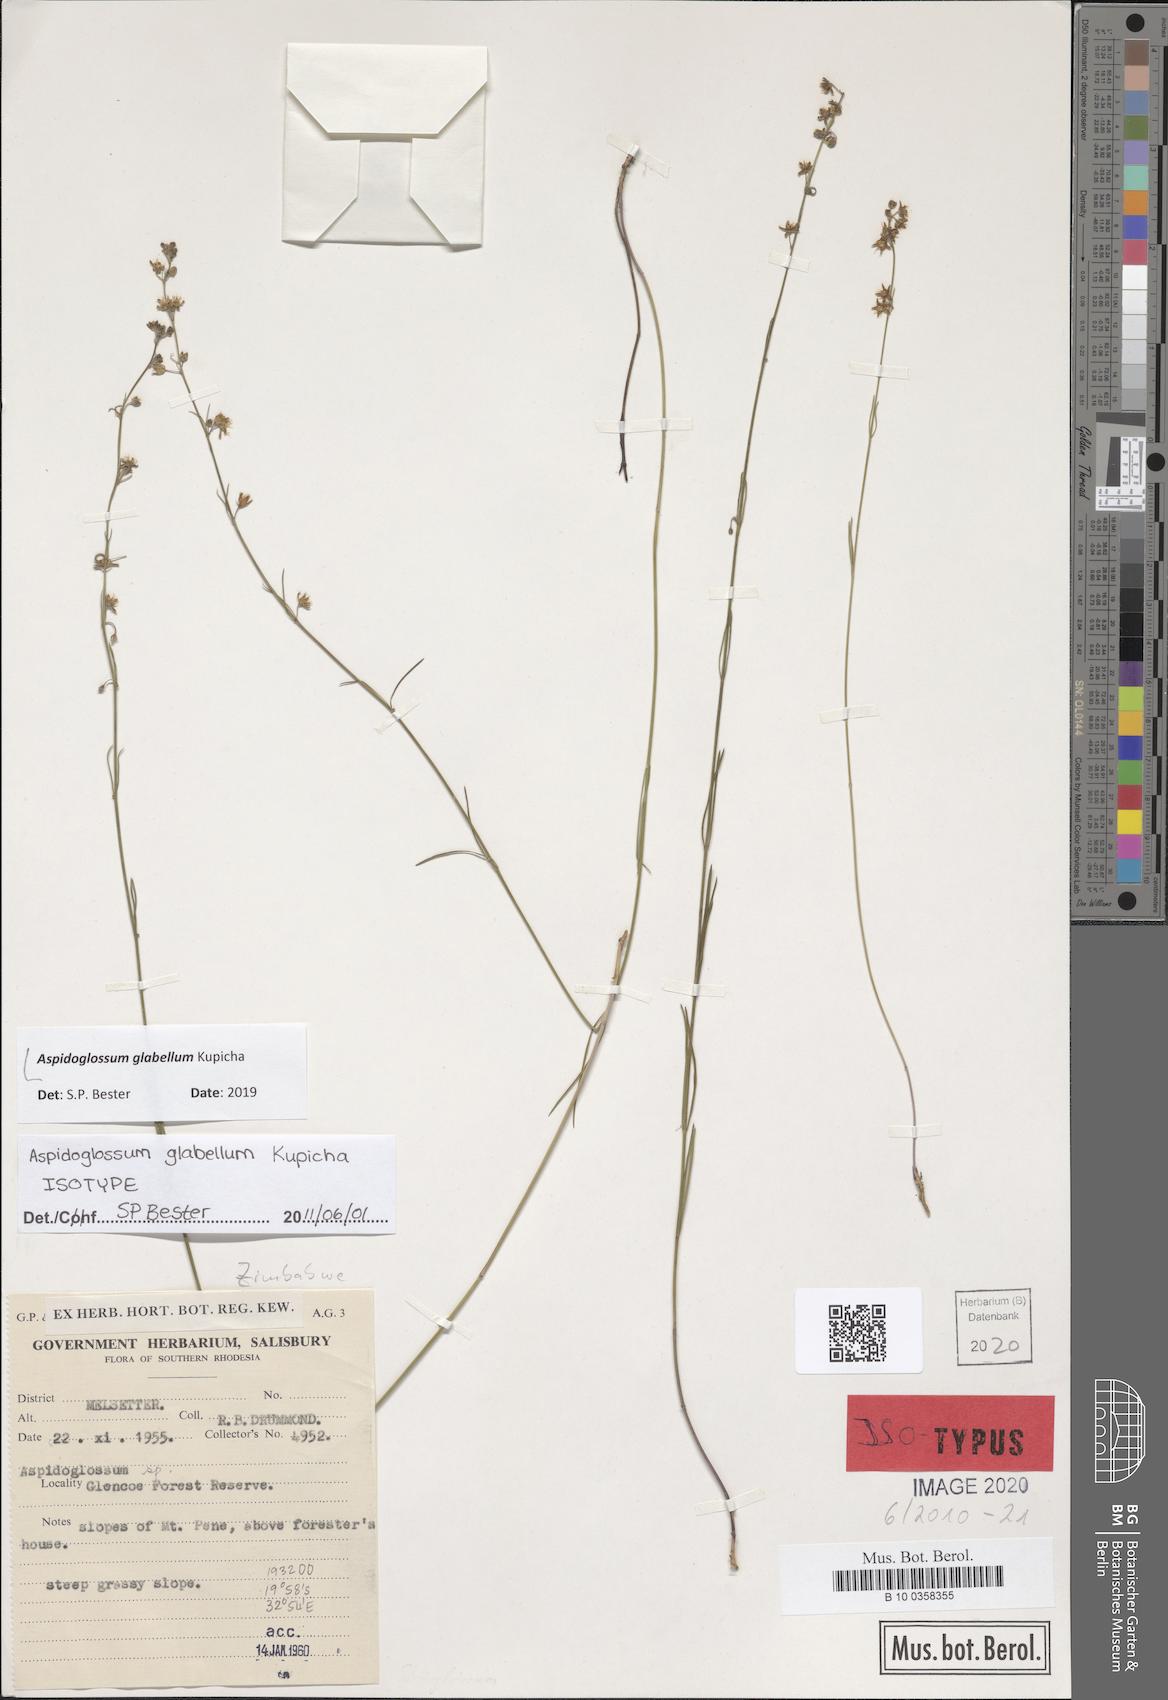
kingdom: Plantae
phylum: Tracheophyta
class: Magnoliopsida
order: Gentianales
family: Apocynaceae
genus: Aspidoglossum
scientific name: Aspidoglossum glabellum
